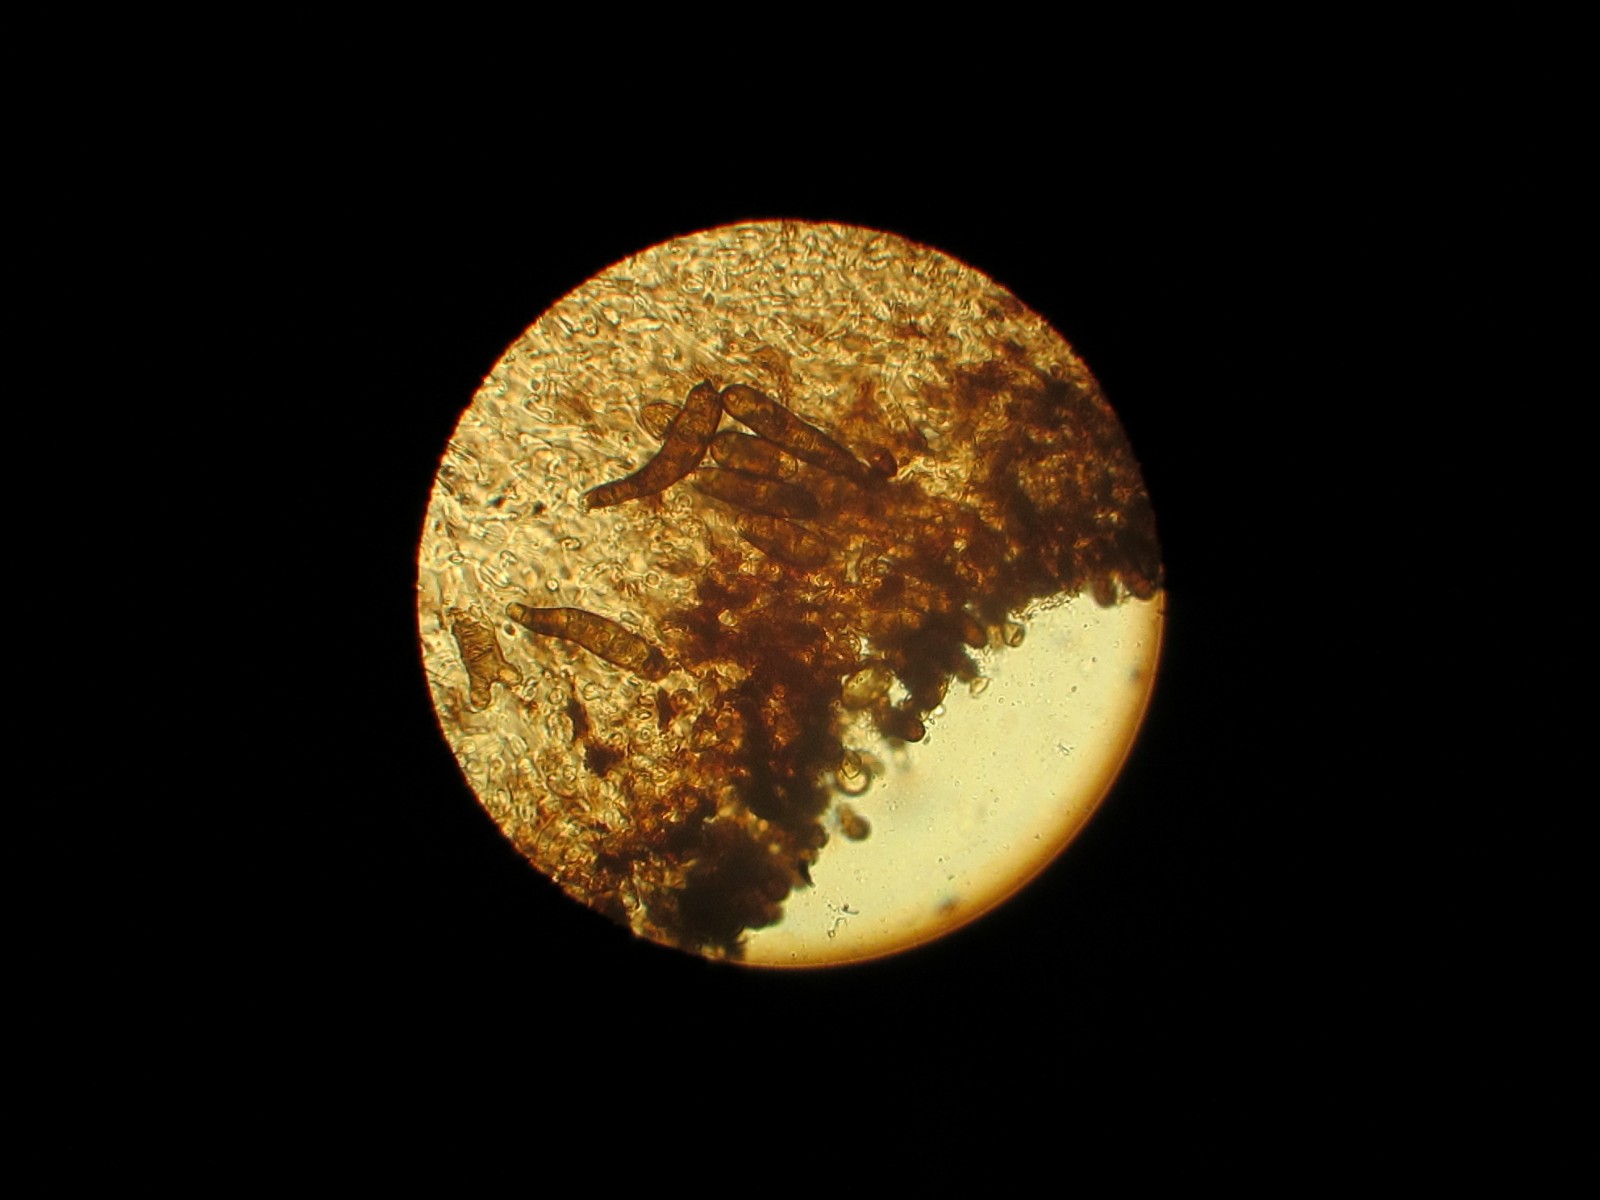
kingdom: Fungi
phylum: Ascomycota
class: Dothideomycetes
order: Pleosporales
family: Corynesporascaceae
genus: Corynespora
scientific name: Corynespora
